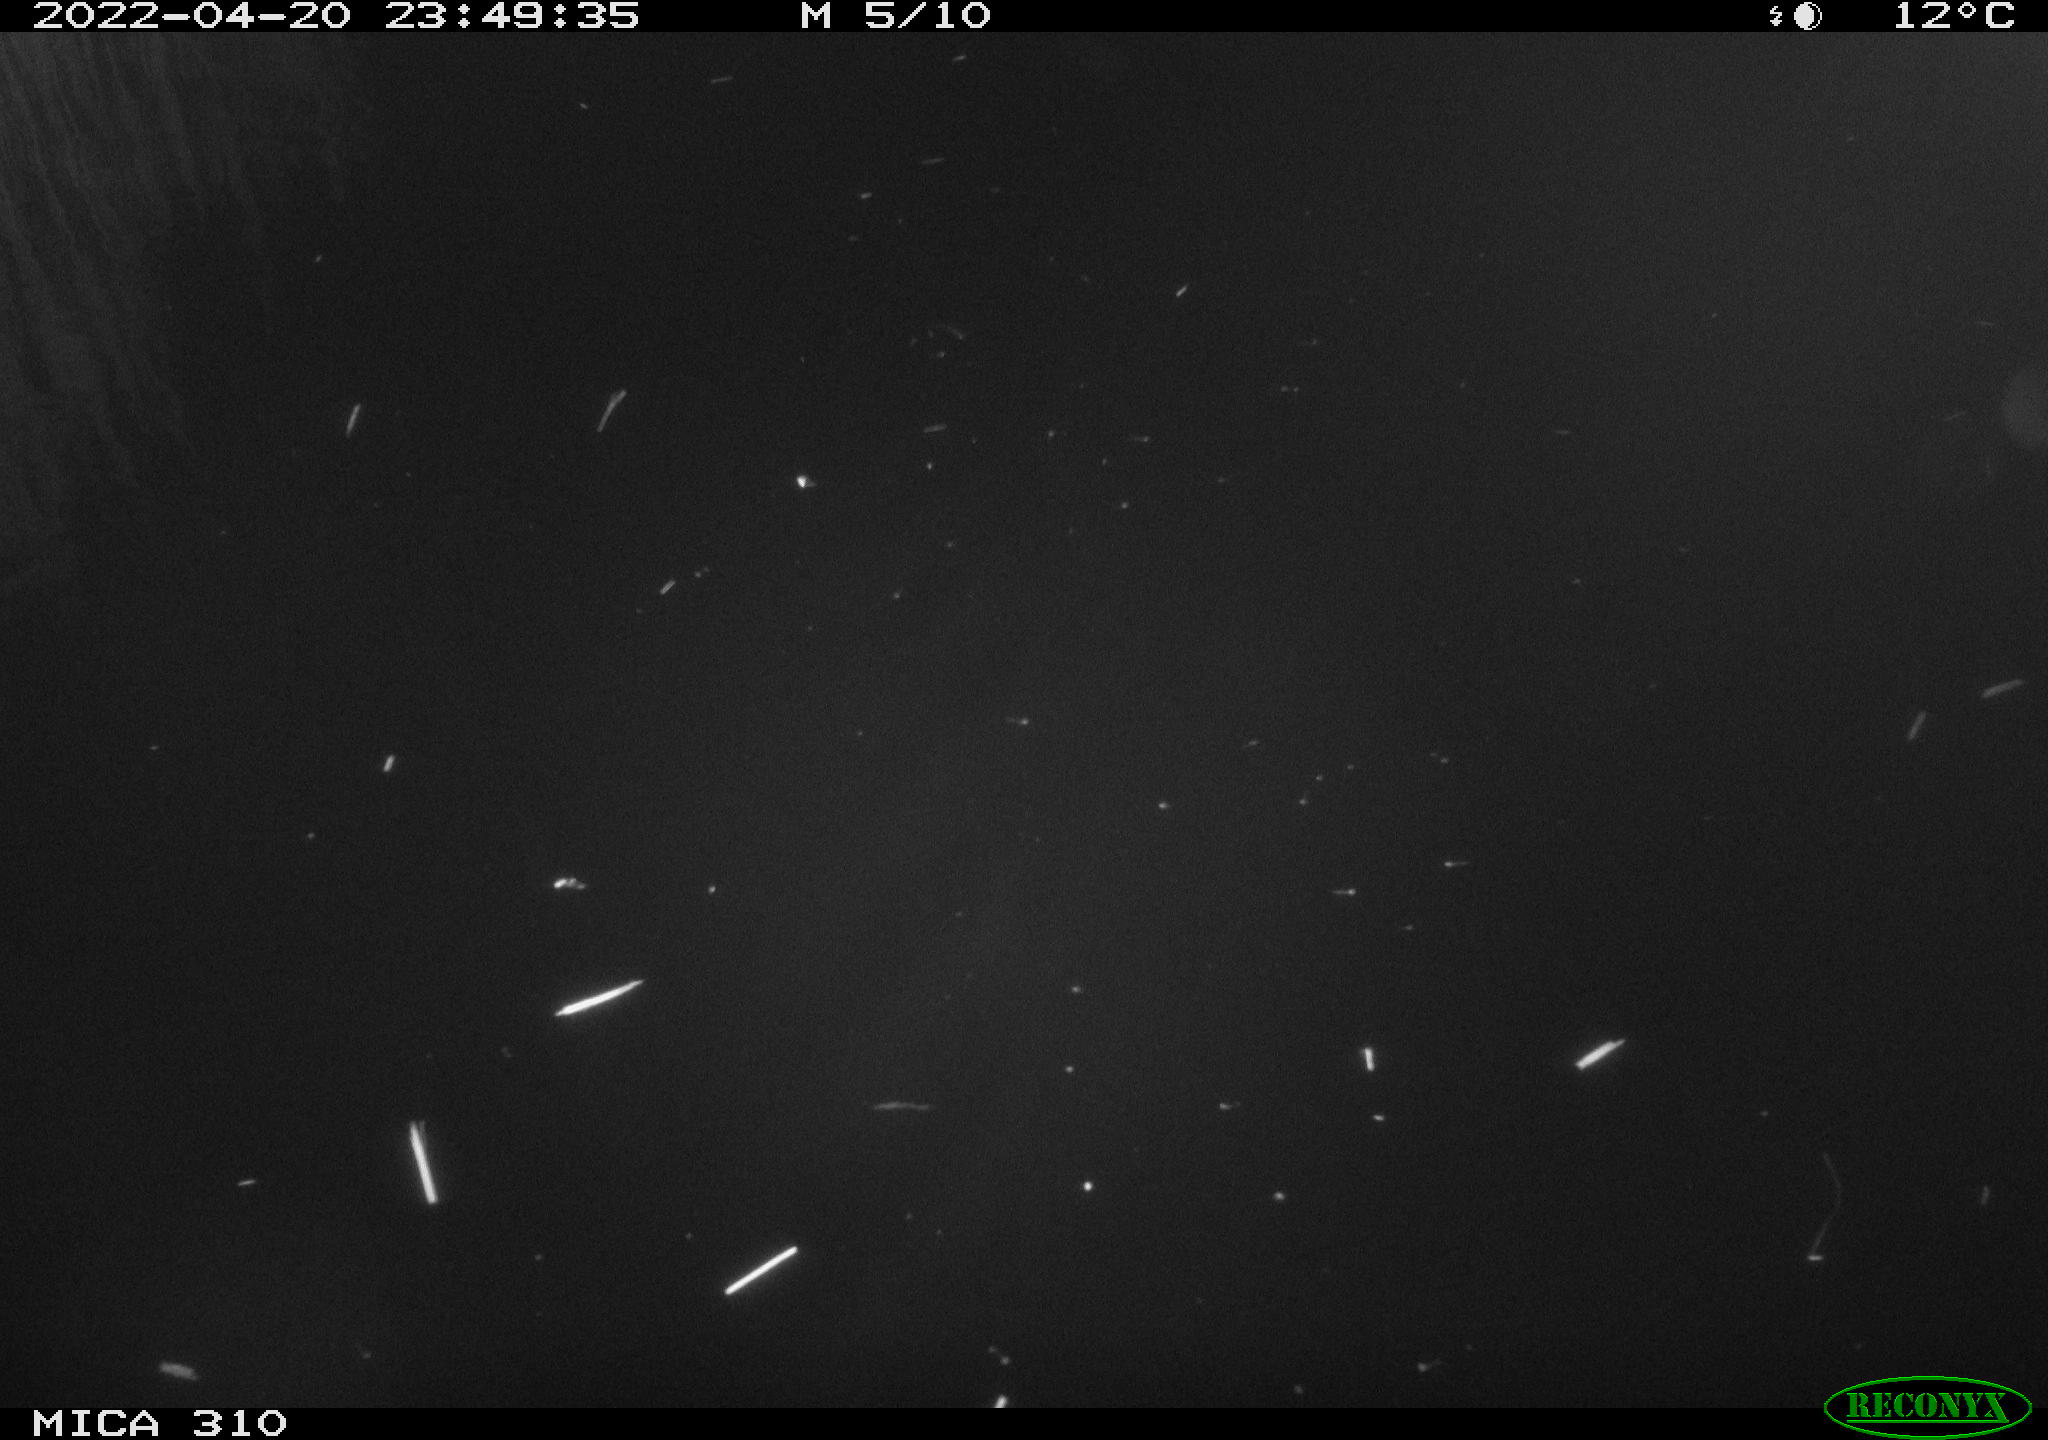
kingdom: Animalia
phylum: Chordata
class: Aves
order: Anseriformes
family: Anatidae
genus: Anas
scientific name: Anas platyrhynchos
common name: Mallard
